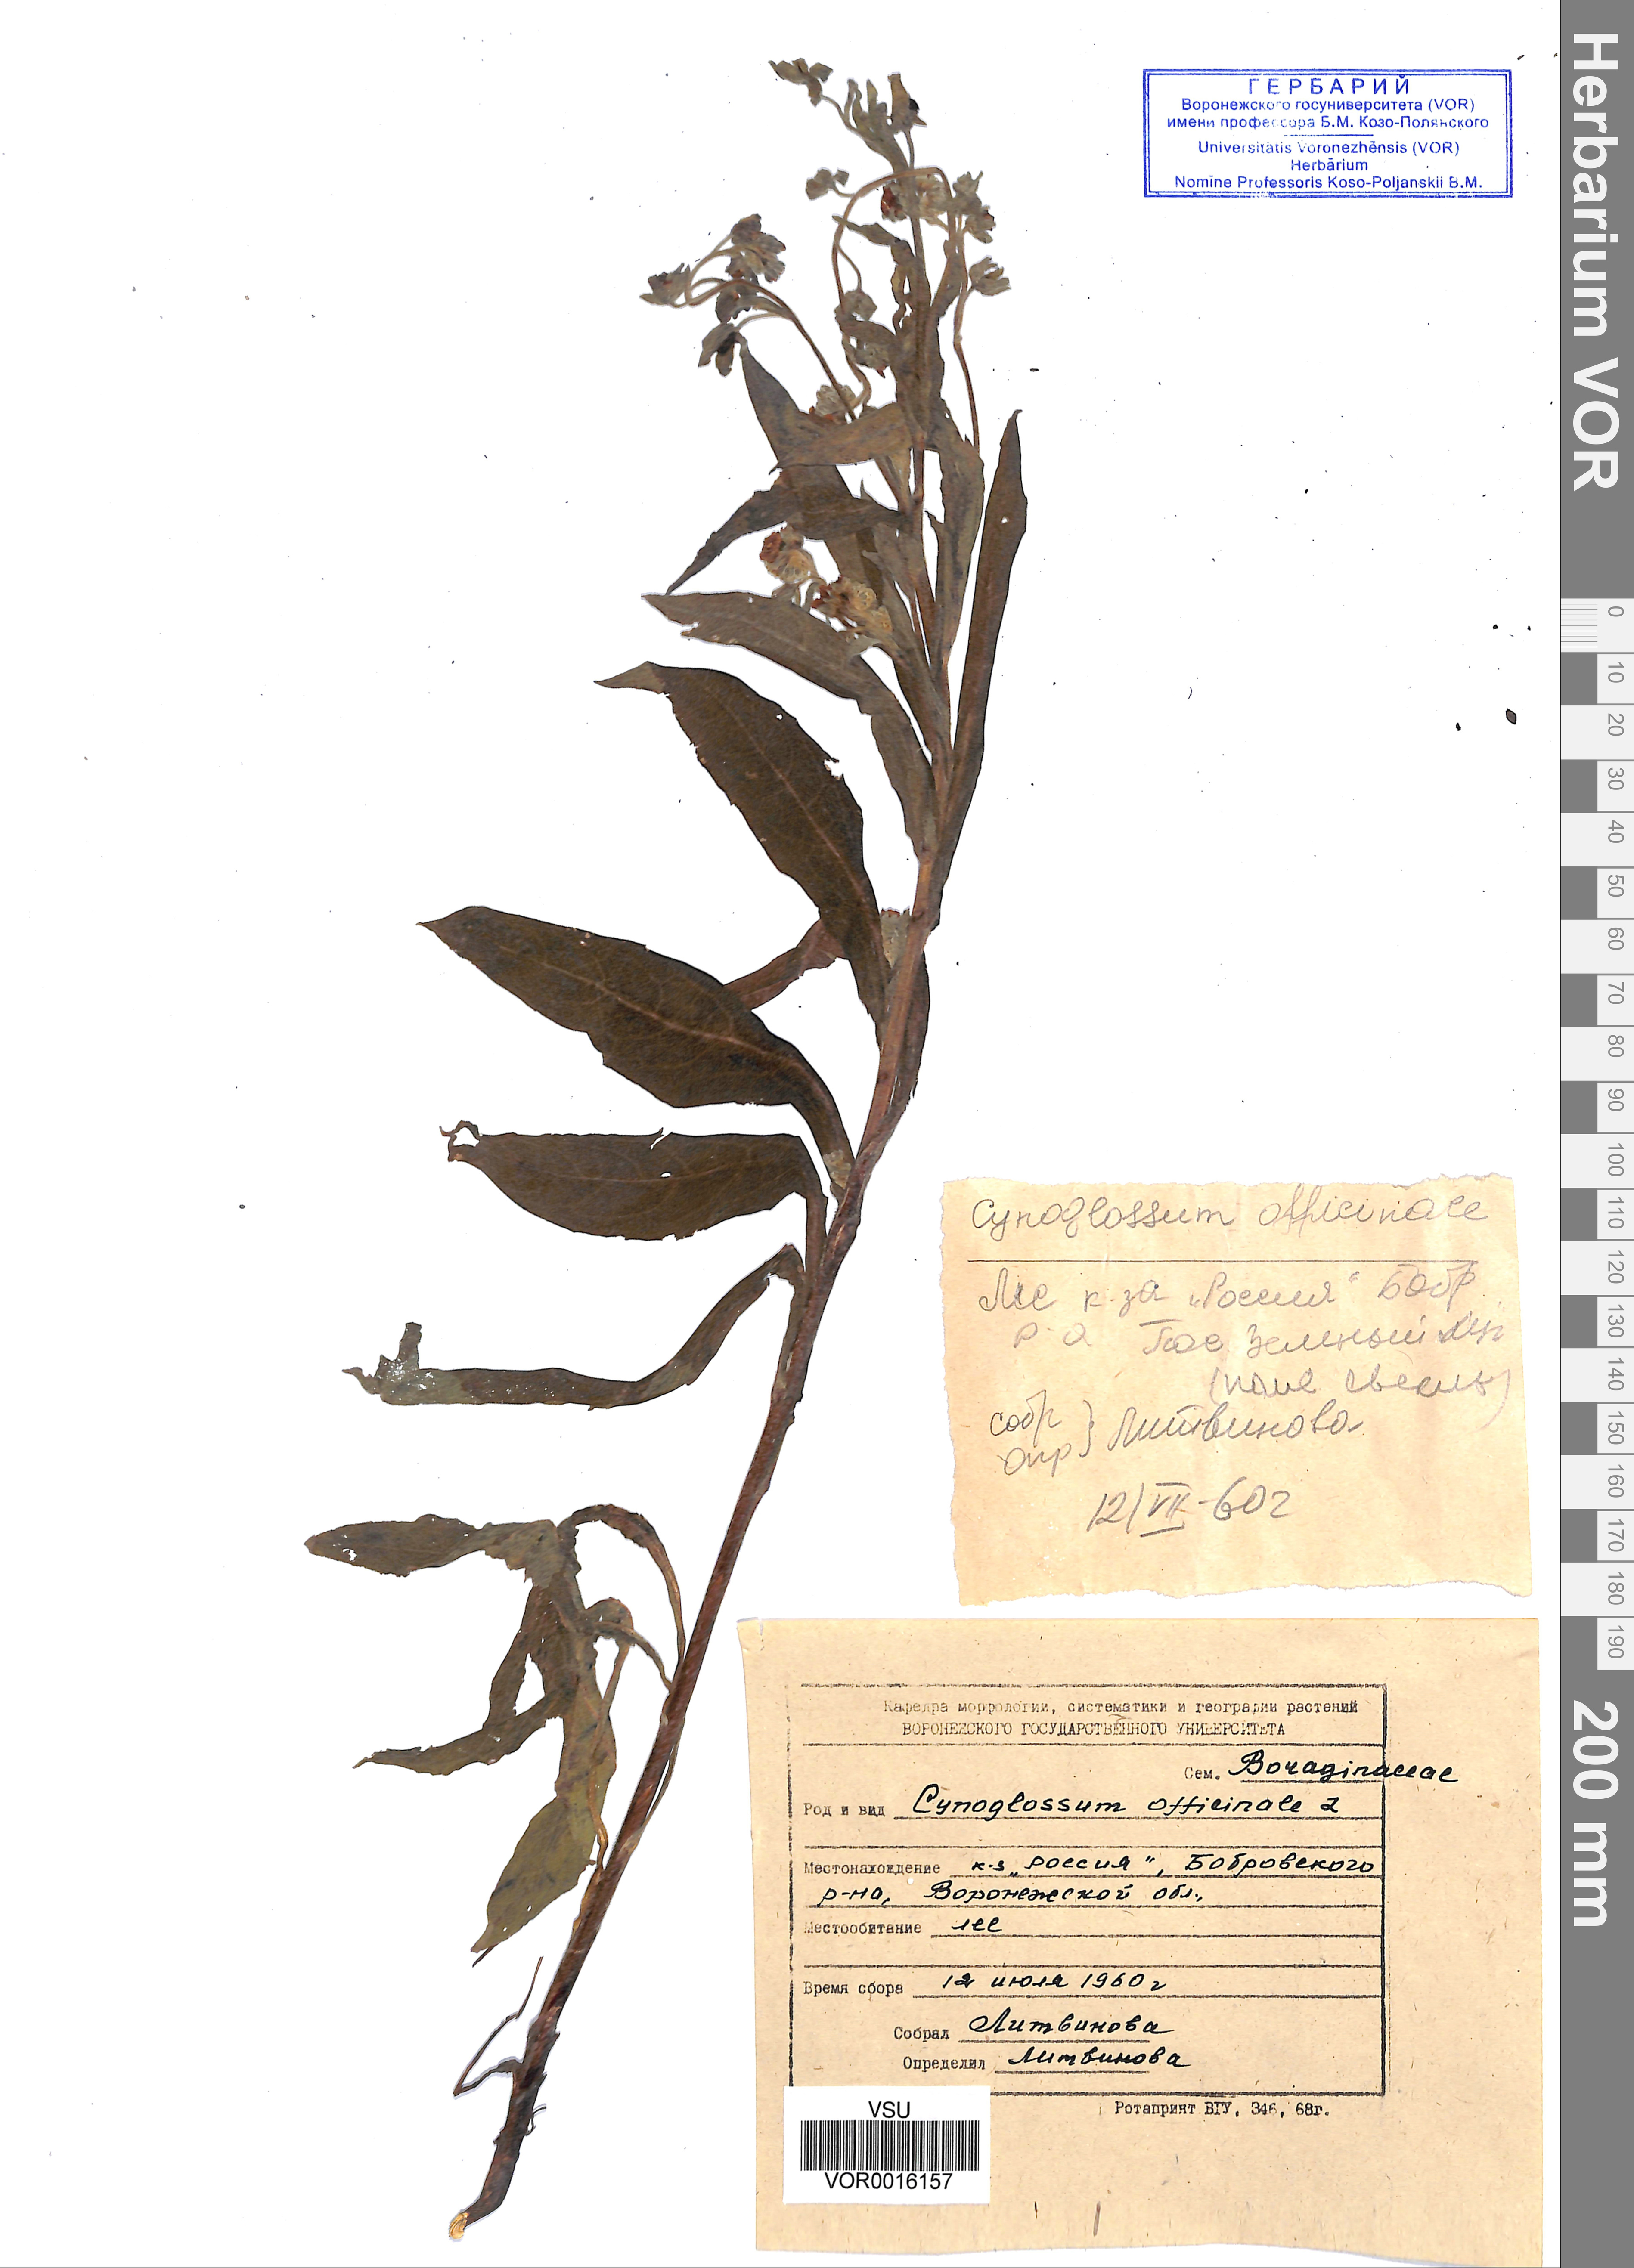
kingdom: Plantae
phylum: Tracheophyta
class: Magnoliopsida
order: Boraginales
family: Boraginaceae
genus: Cynoglossum
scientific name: Cynoglossum officinale
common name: Hound's-tongue
